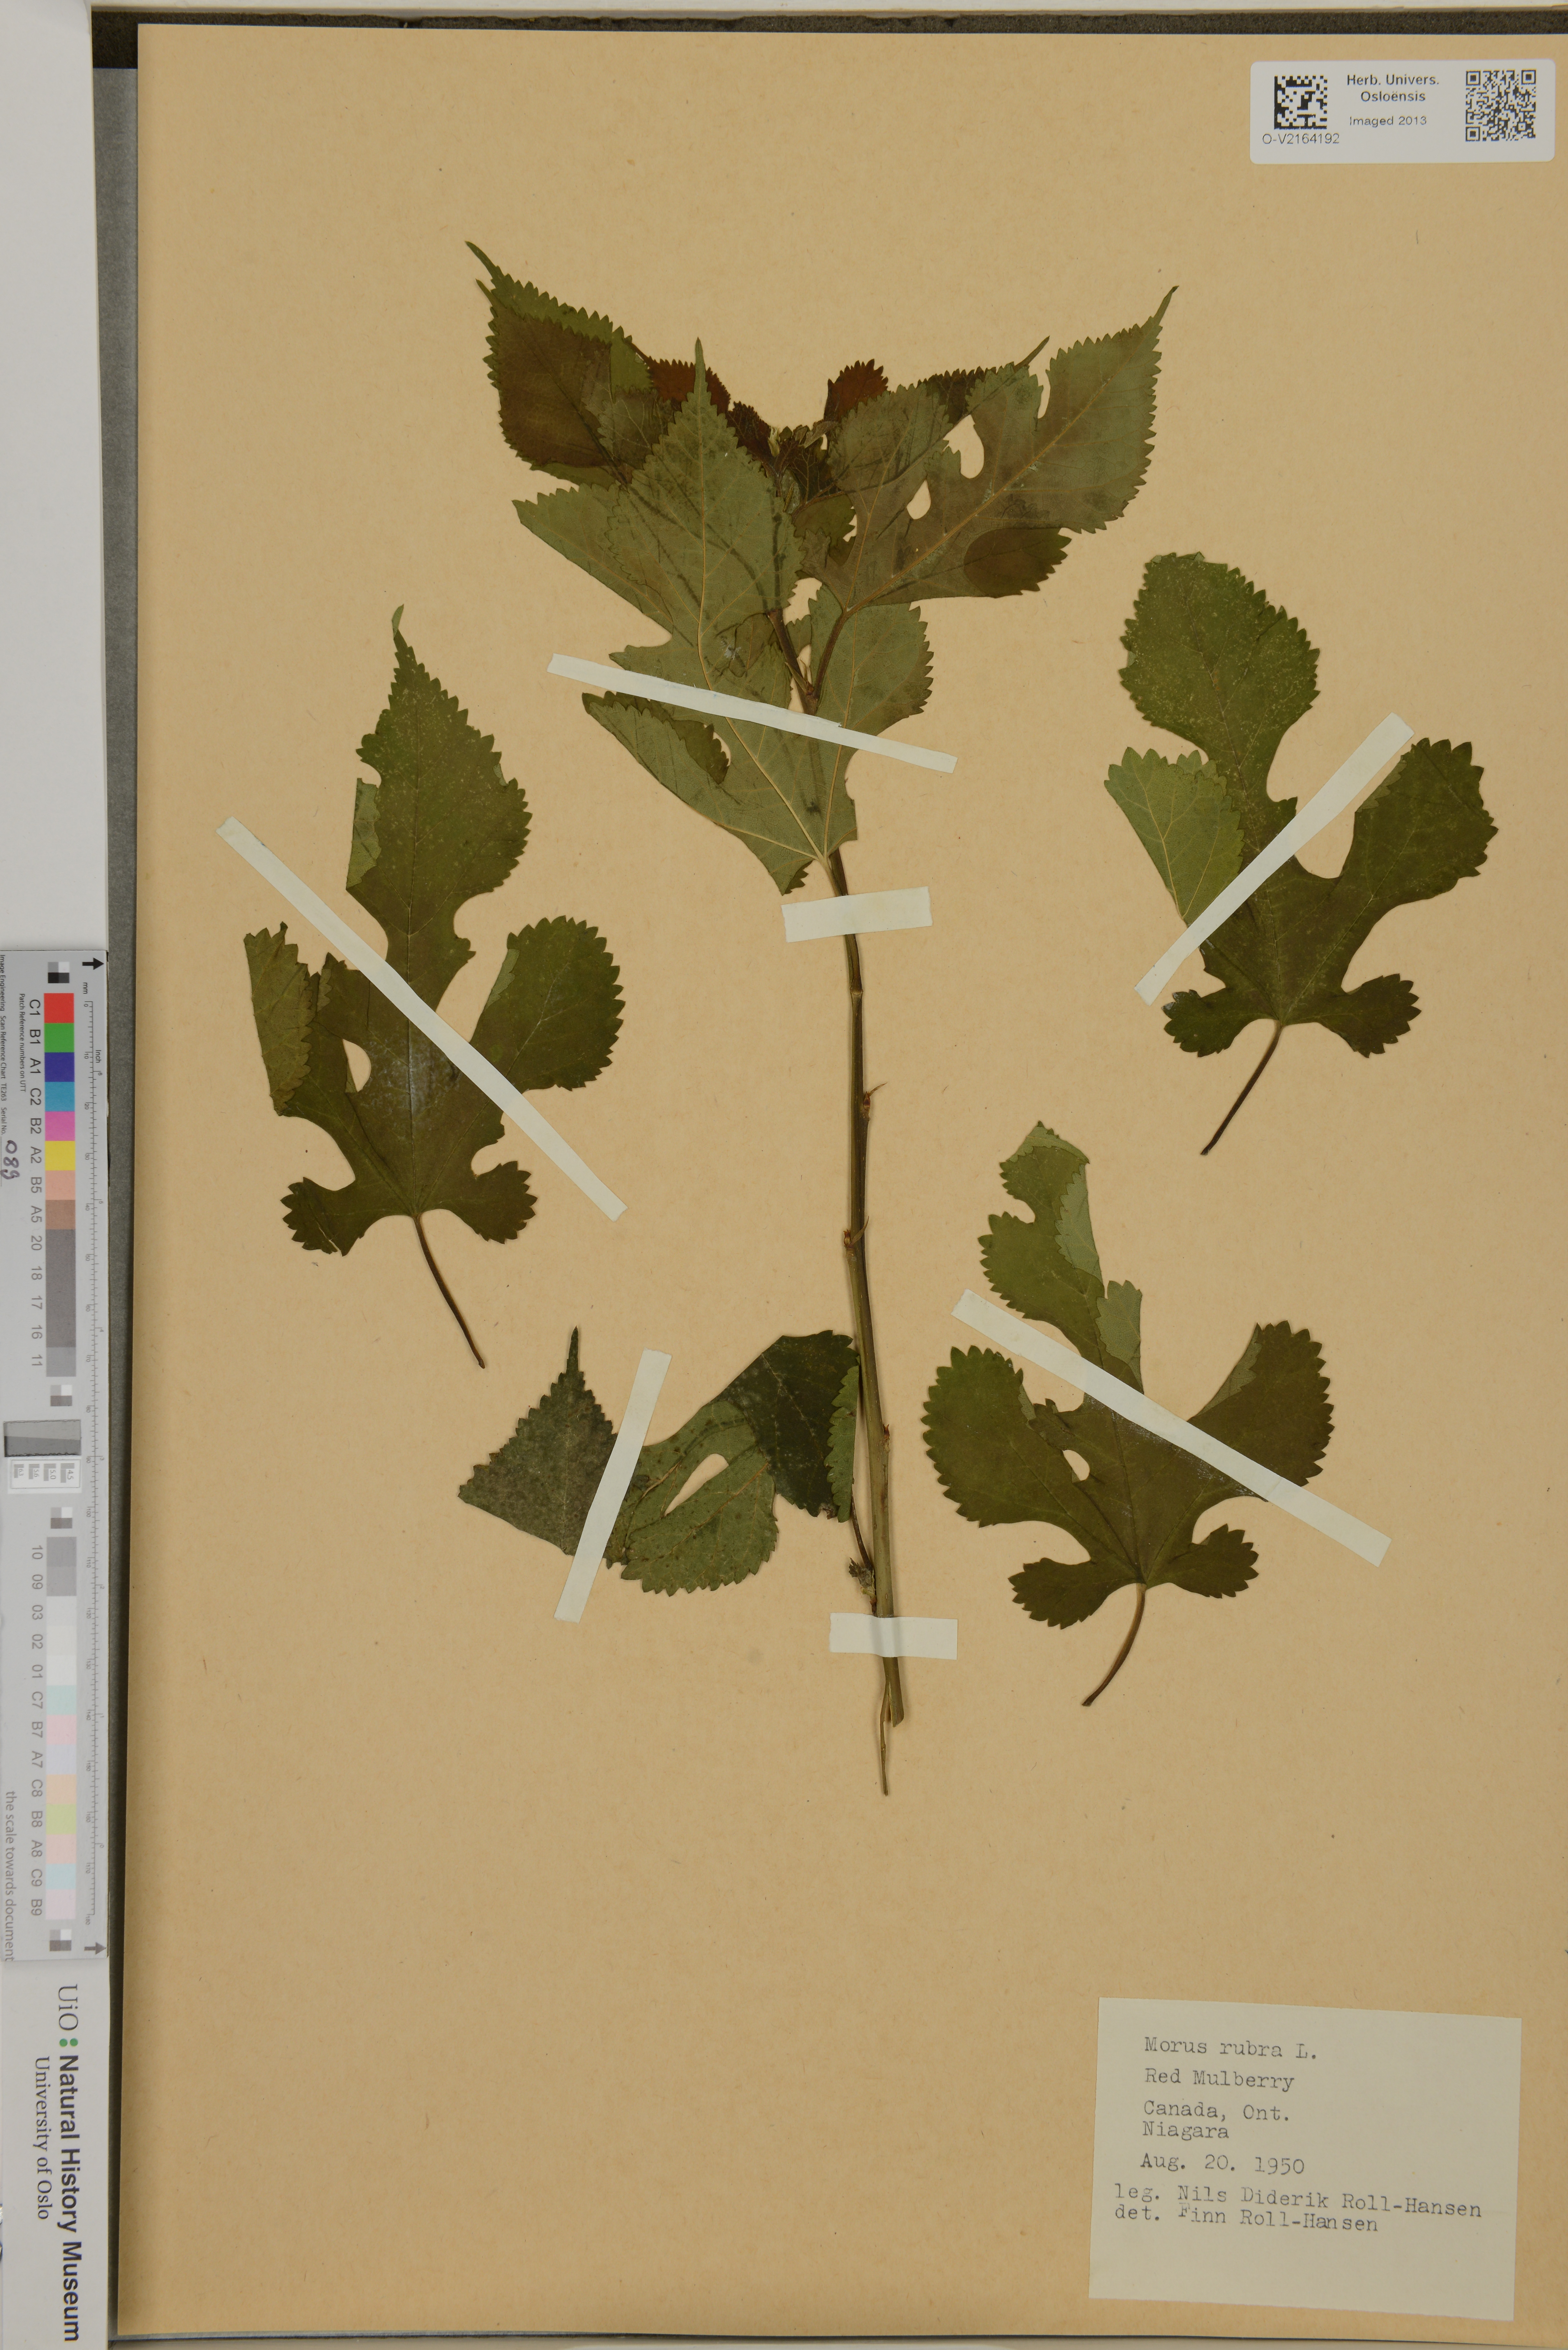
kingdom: Plantae
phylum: Tracheophyta
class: Magnoliopsida
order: Rosales
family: Moraceae
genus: Morus
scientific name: Morus rubra
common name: Red mulberry
